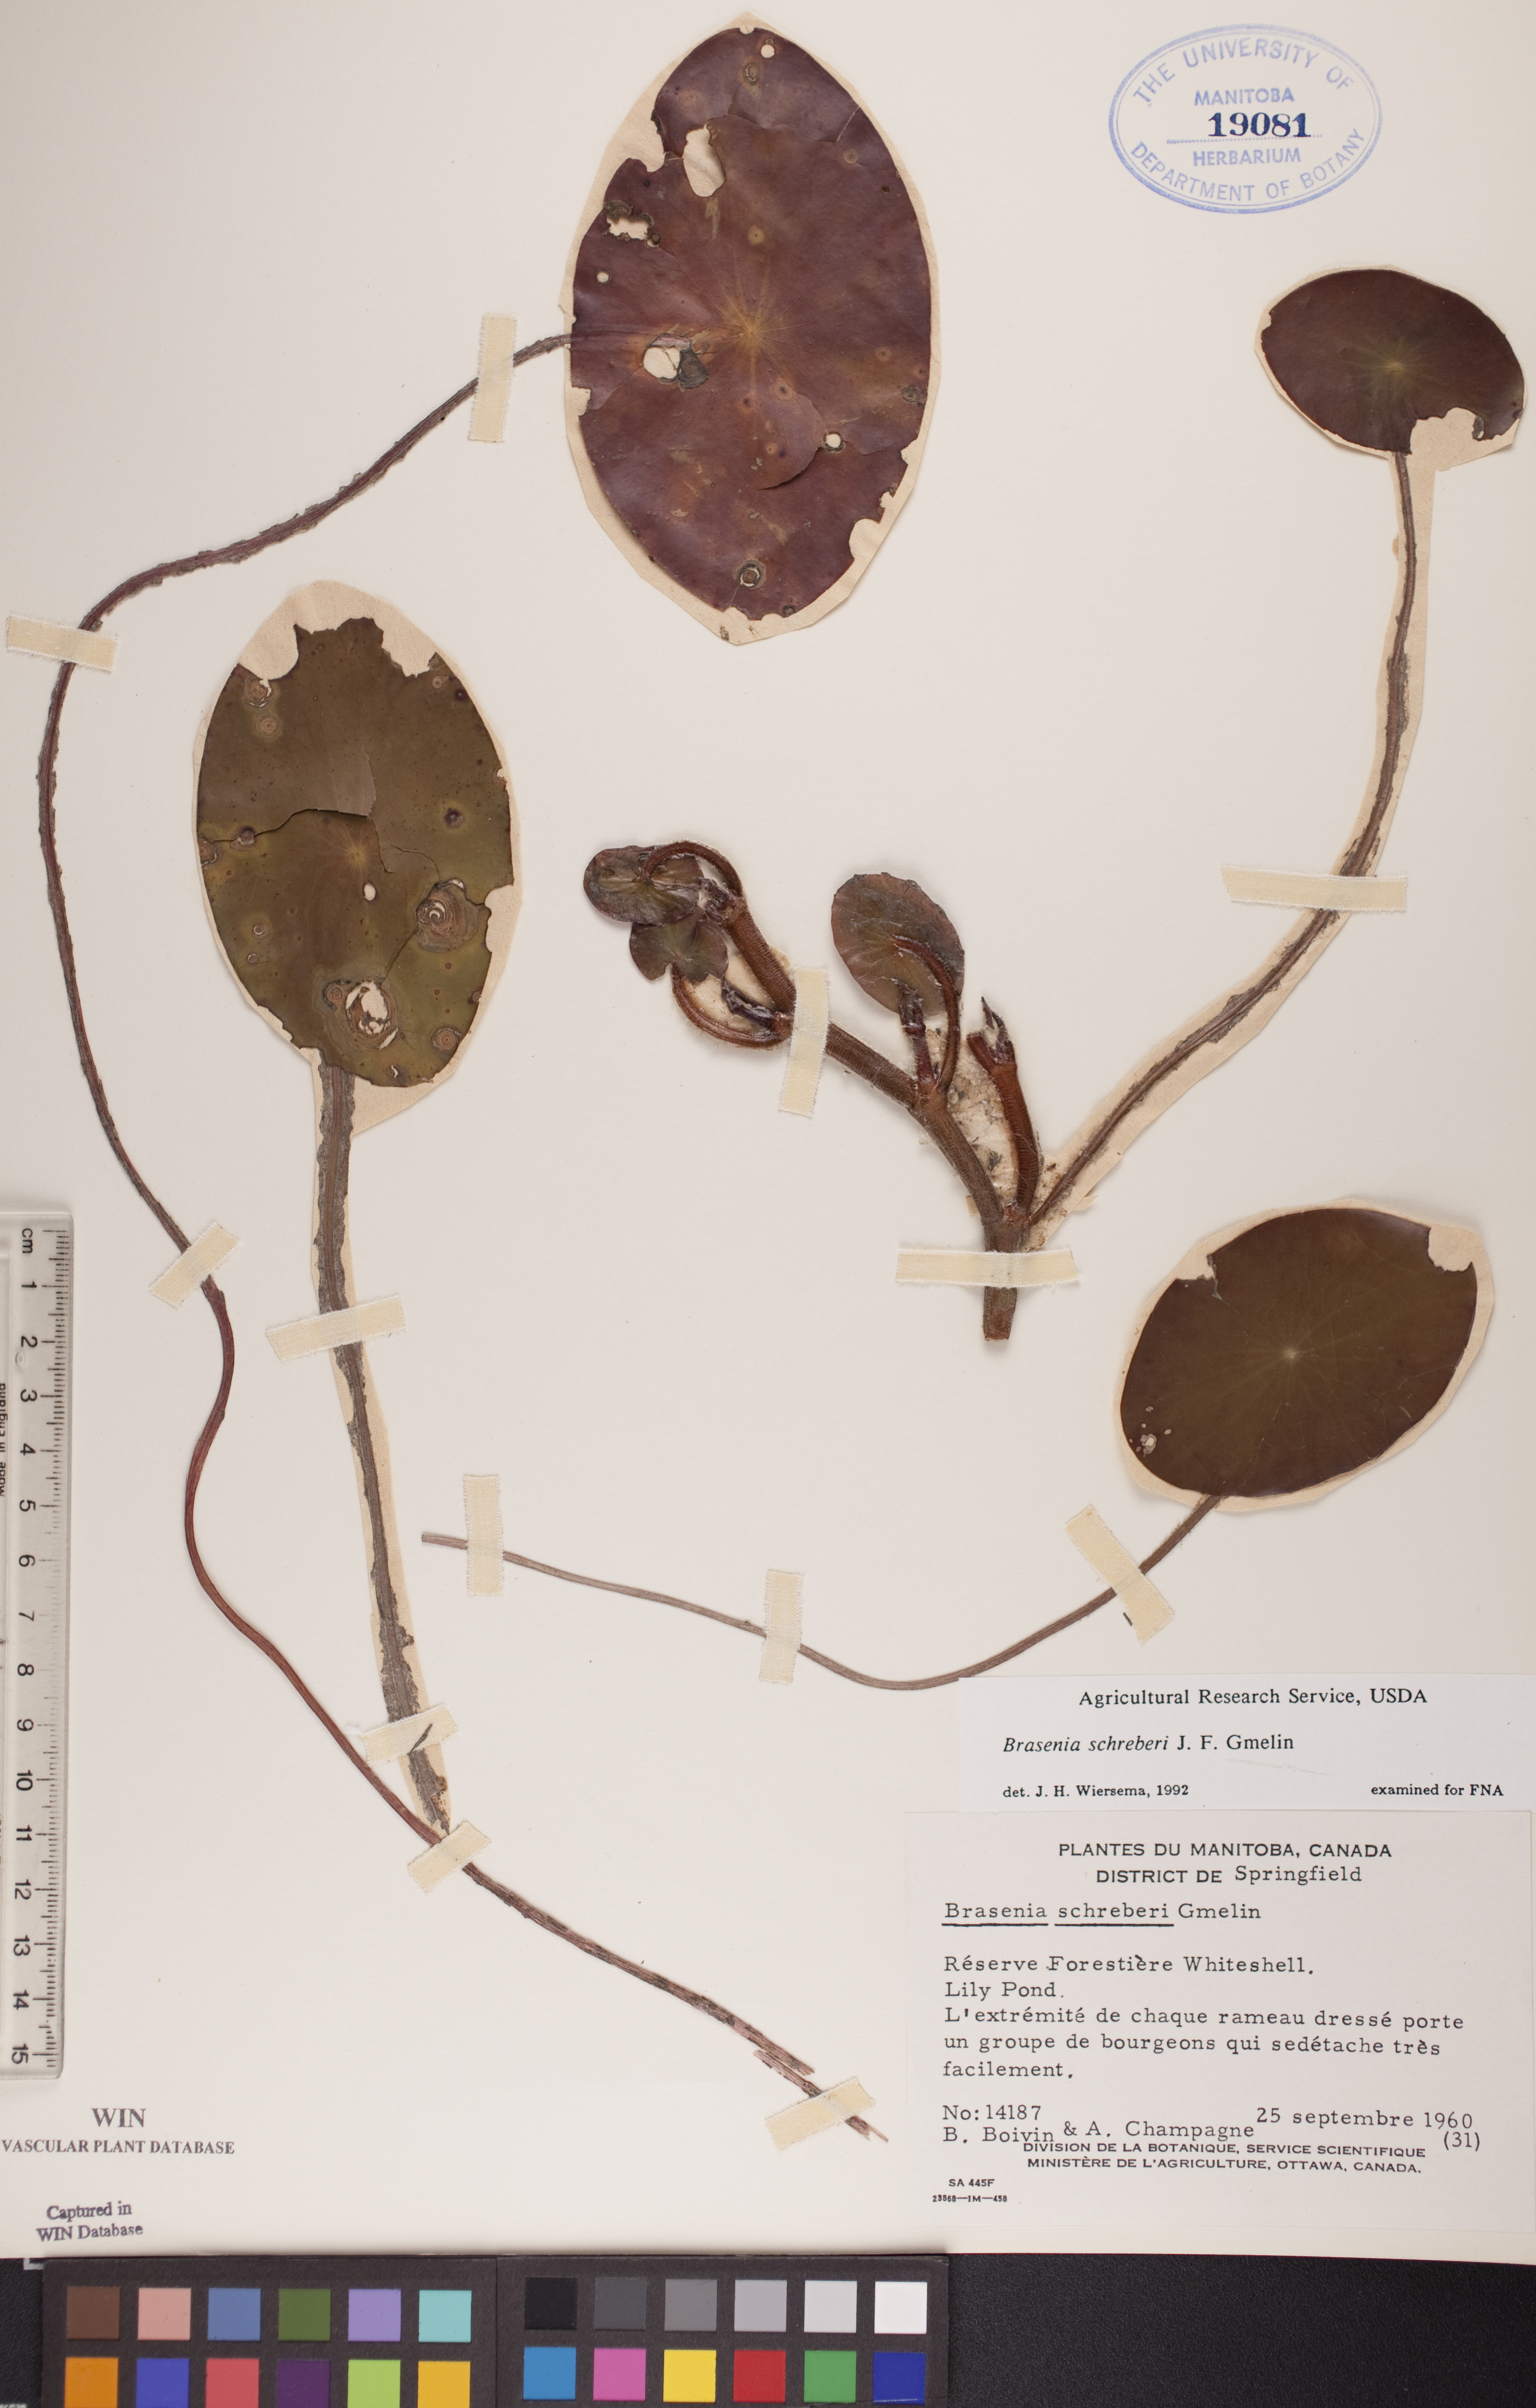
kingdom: Plantae
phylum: Tracheophyta
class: Magnoliopsida
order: Nymphaeales
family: Cabombaceae
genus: Brasenia
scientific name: Brasenia schreberi
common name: Water-shield
